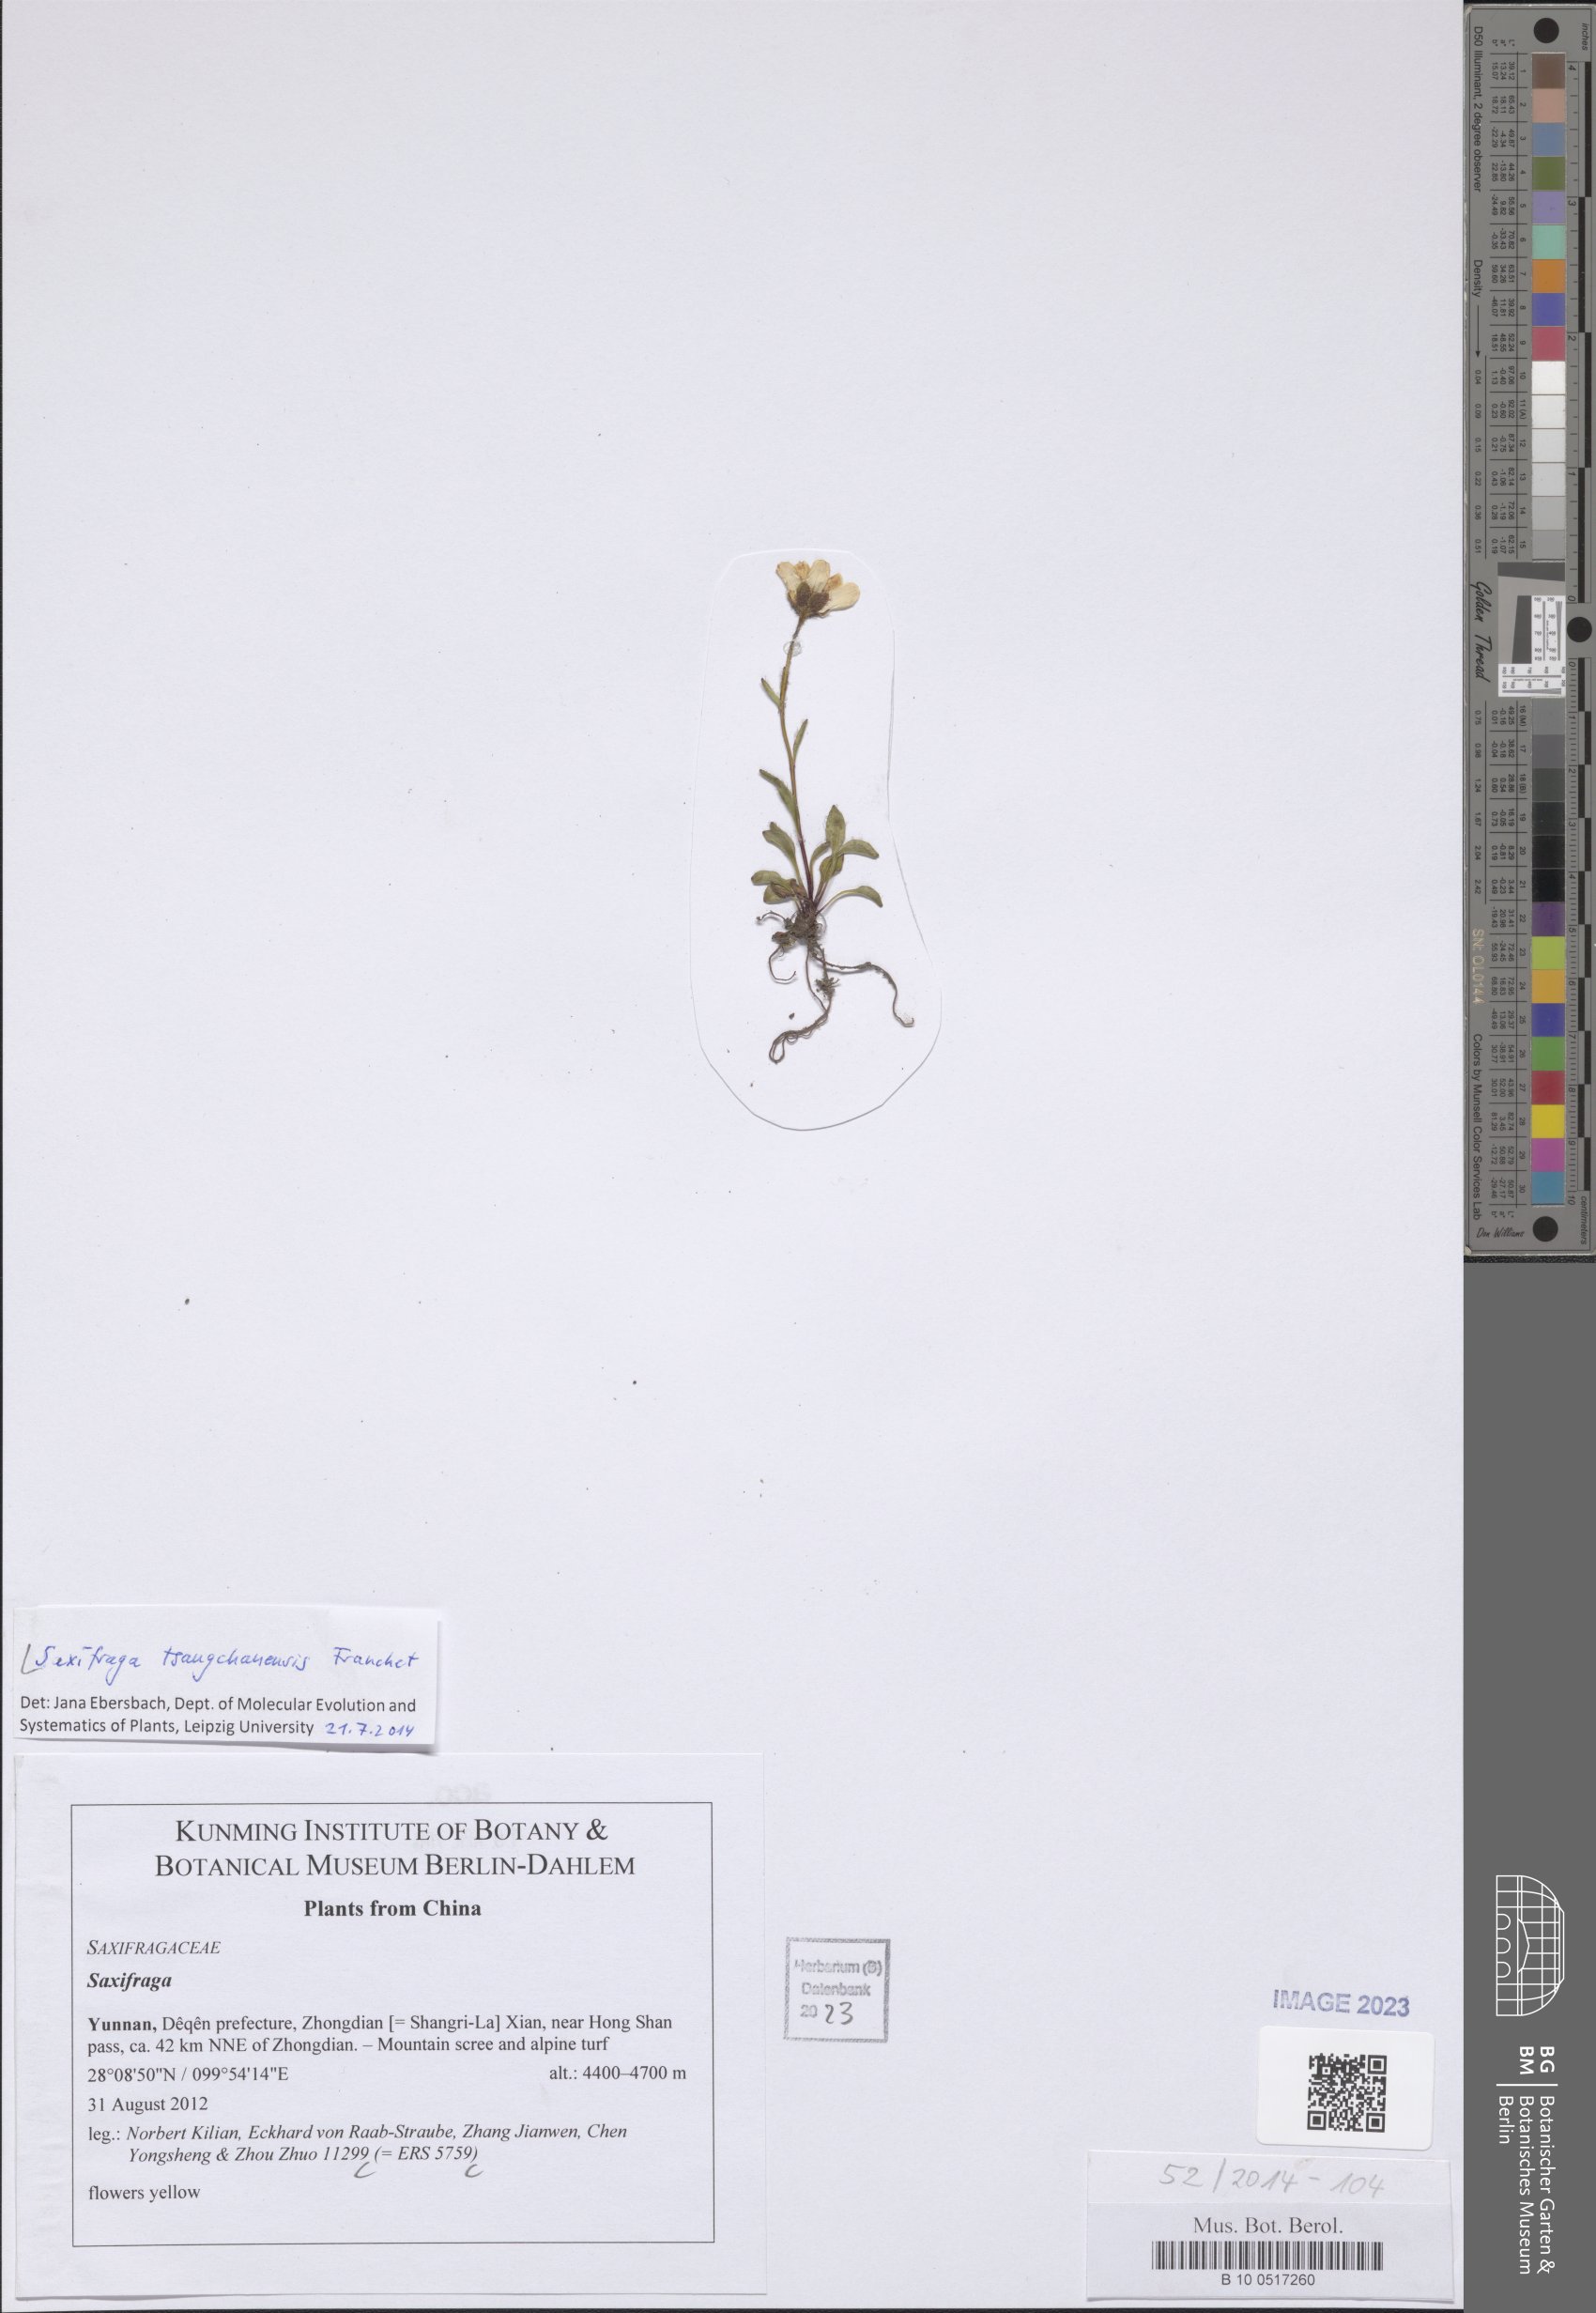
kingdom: Plantae
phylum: Tracheophyta
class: Magnoliopsida
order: Saxifragales
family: Saxifragaceae
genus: Saxifraga
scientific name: Saxifraga tsangchanensis
